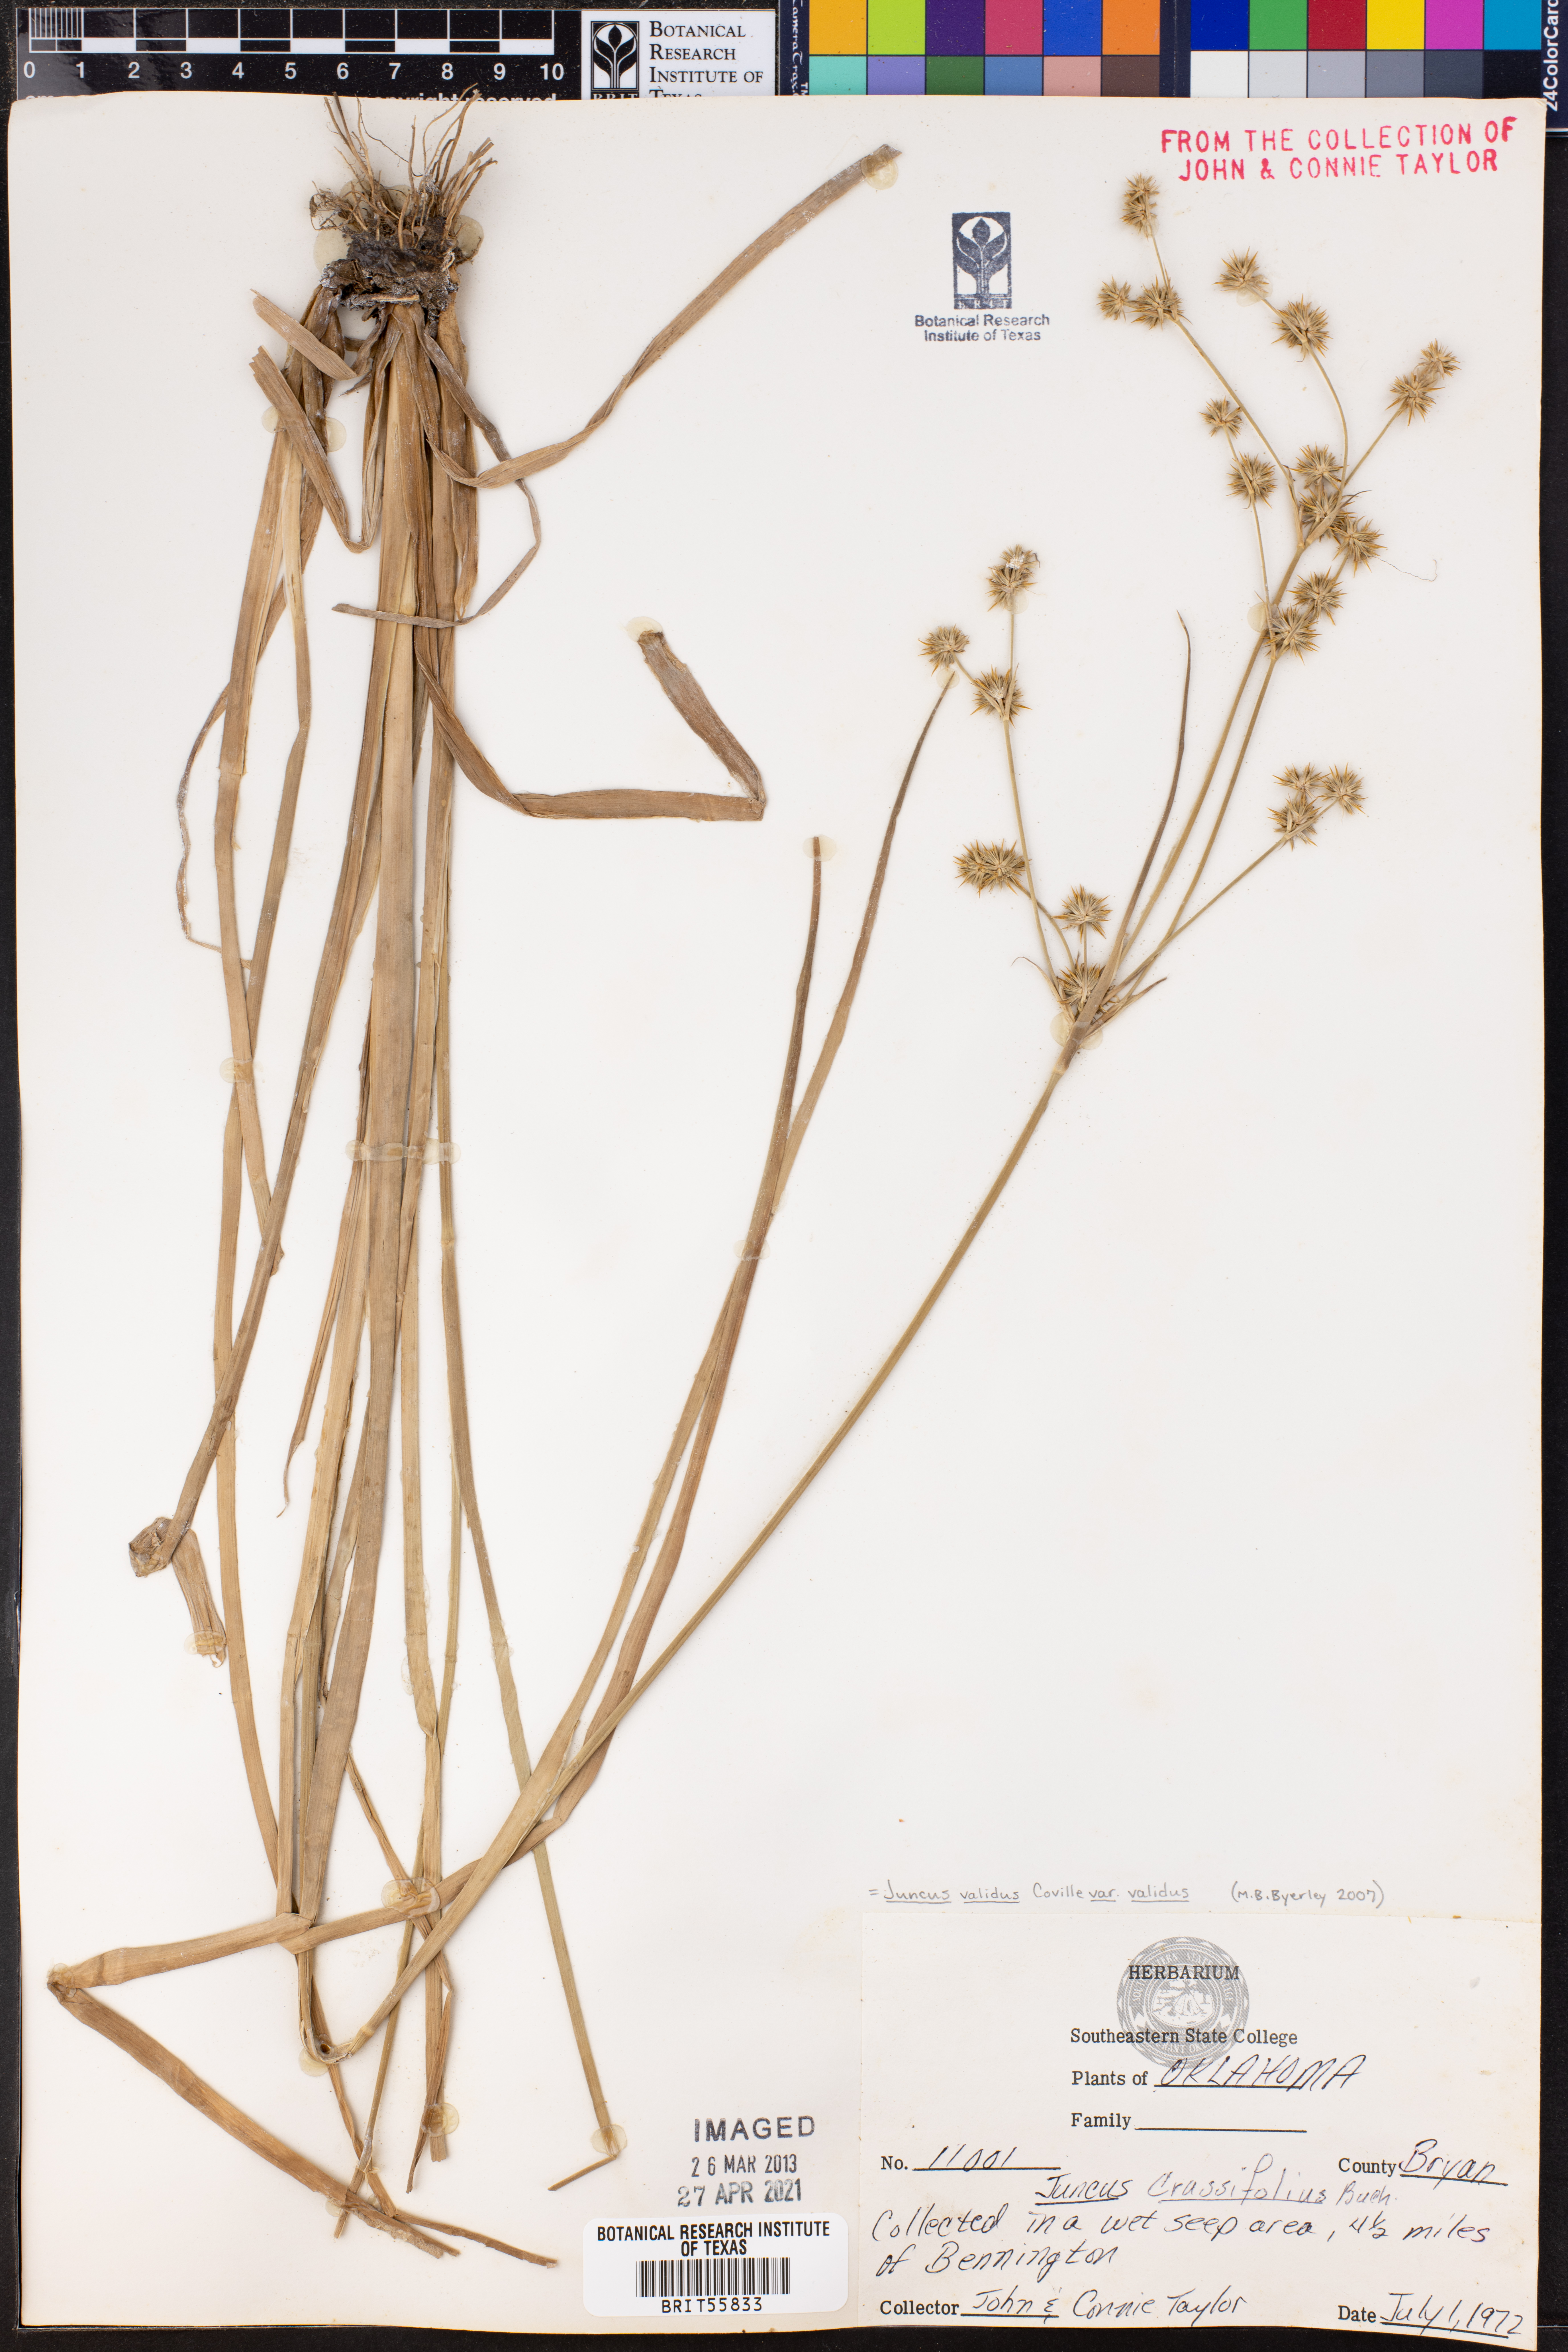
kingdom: Plantae
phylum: Tracheophyta
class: Liliopsida
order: Poales
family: Juncaceae
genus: Juncus
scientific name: Juncus validus
